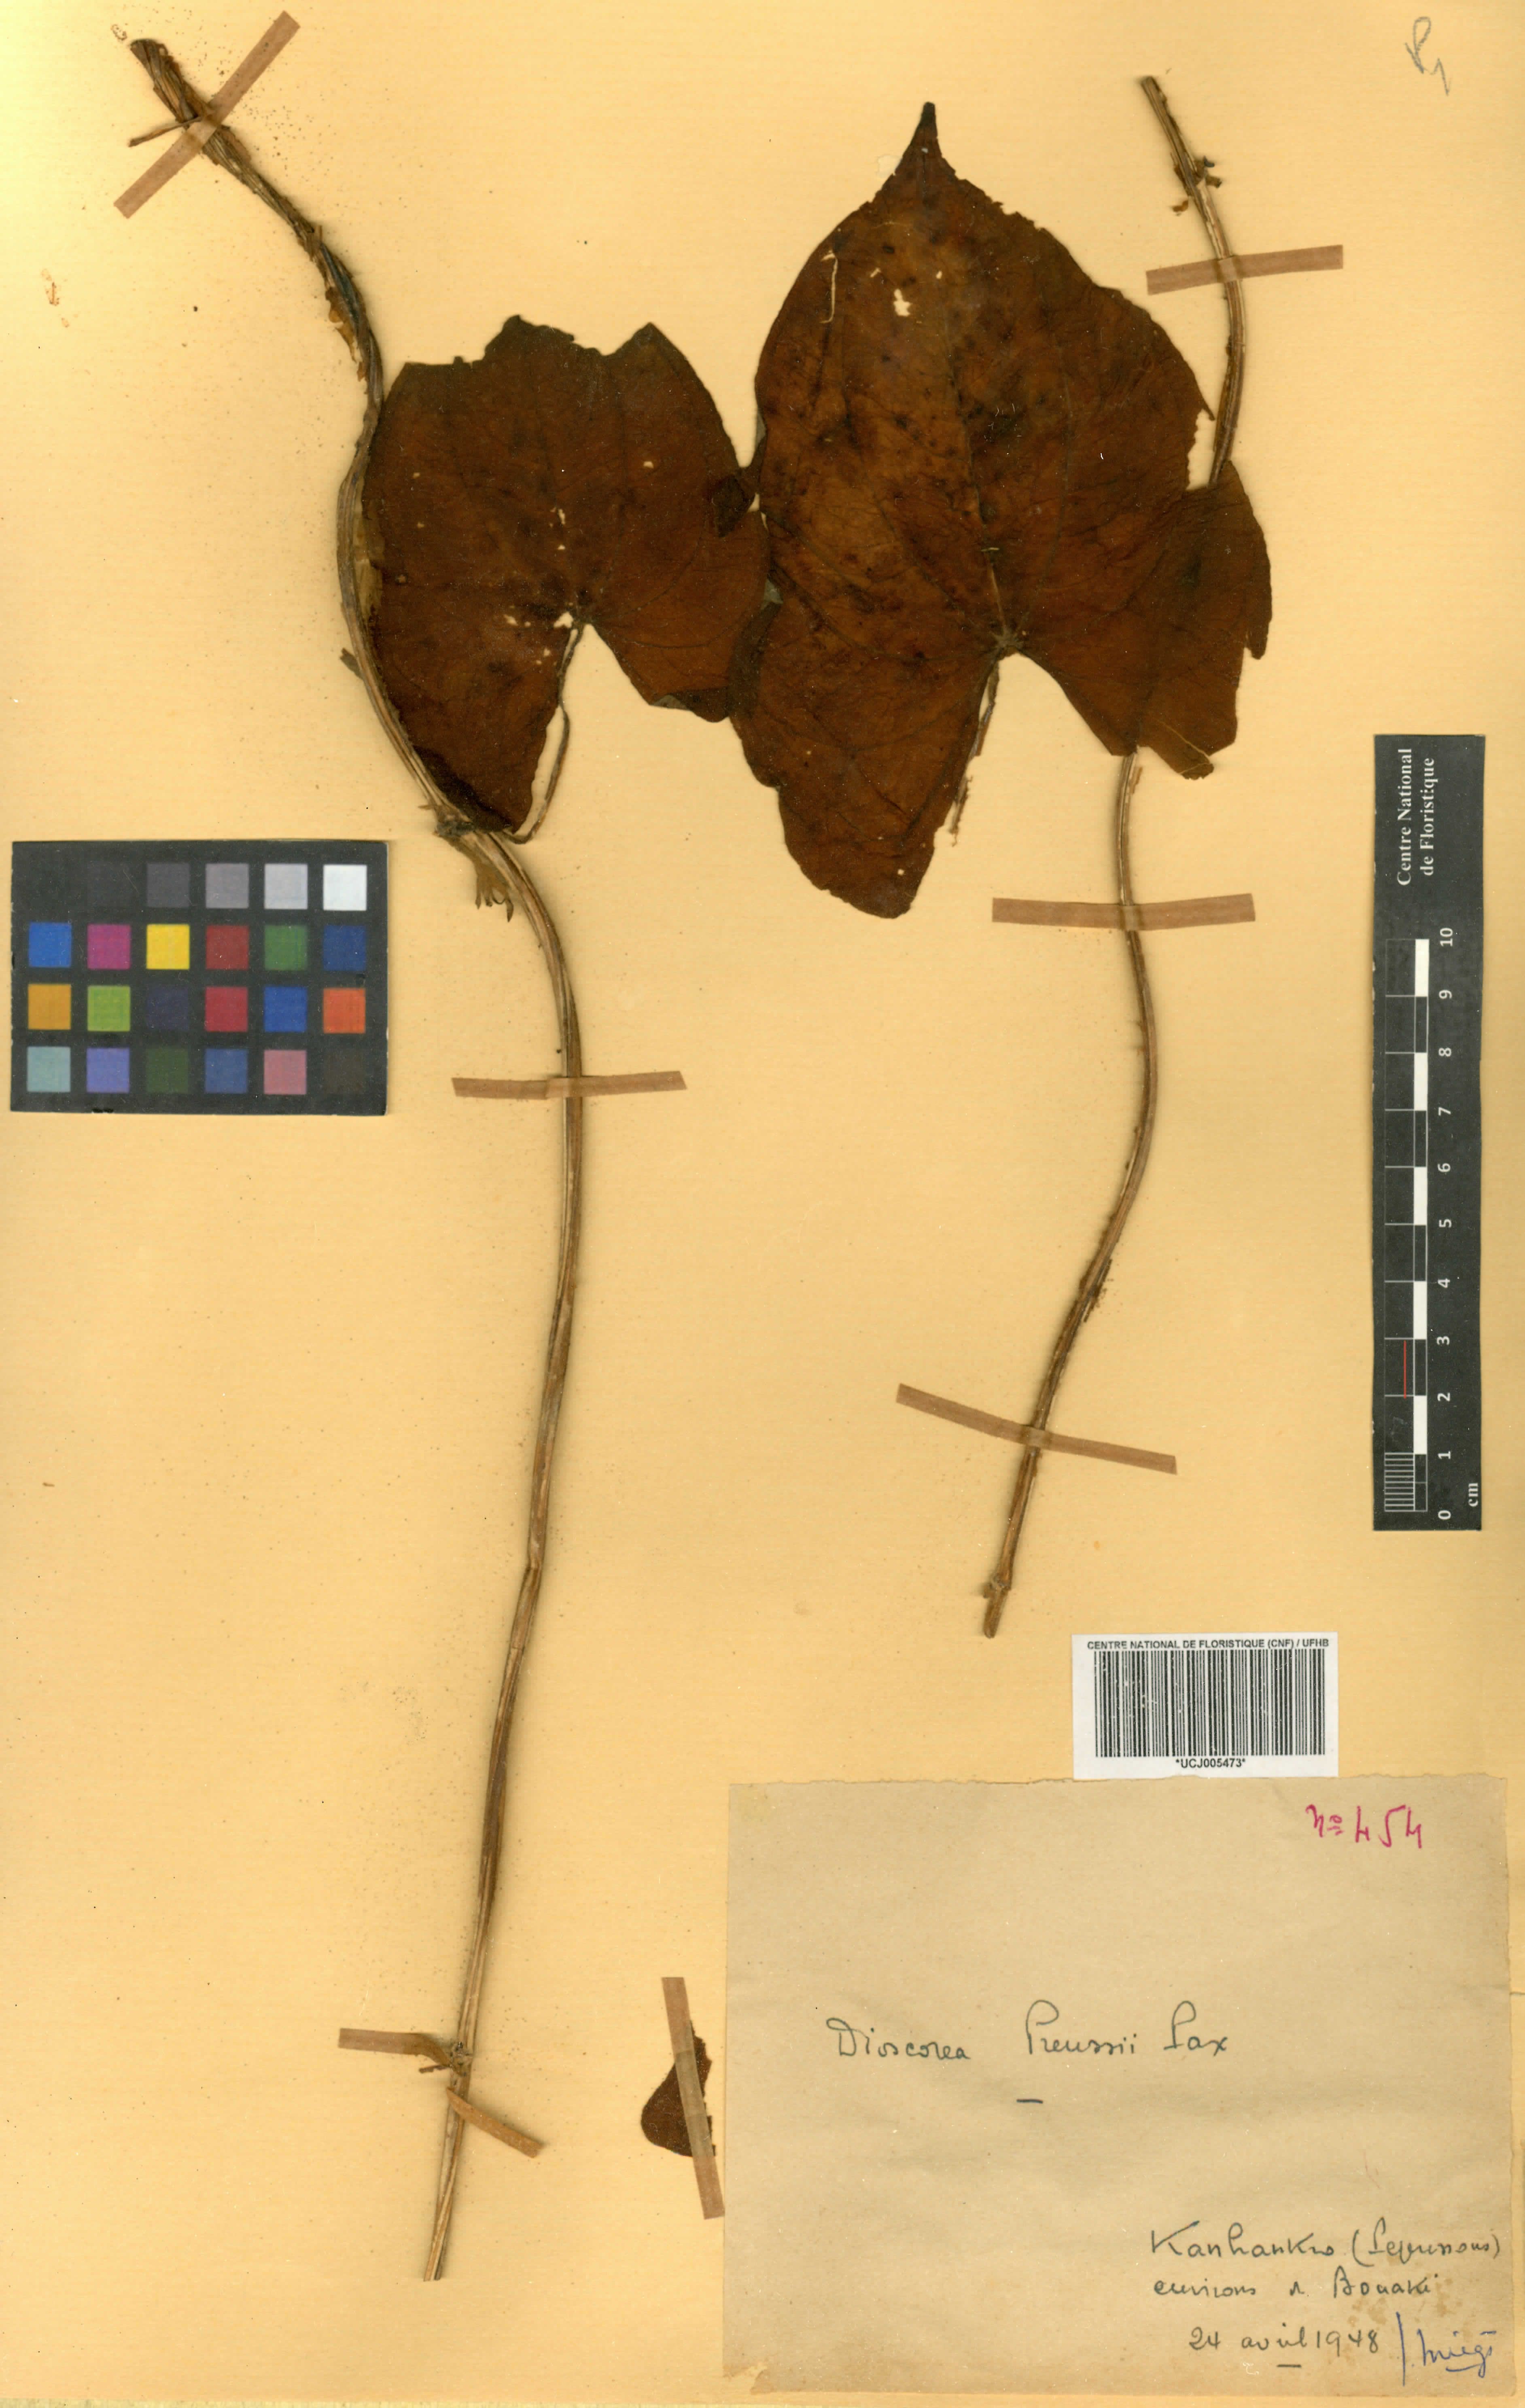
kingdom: Plantae
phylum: Tracheophyta
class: Liliopsida
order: Dioscoreales
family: Dioscoreaceae
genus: Dioscorea
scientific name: Dioscorea preussii
